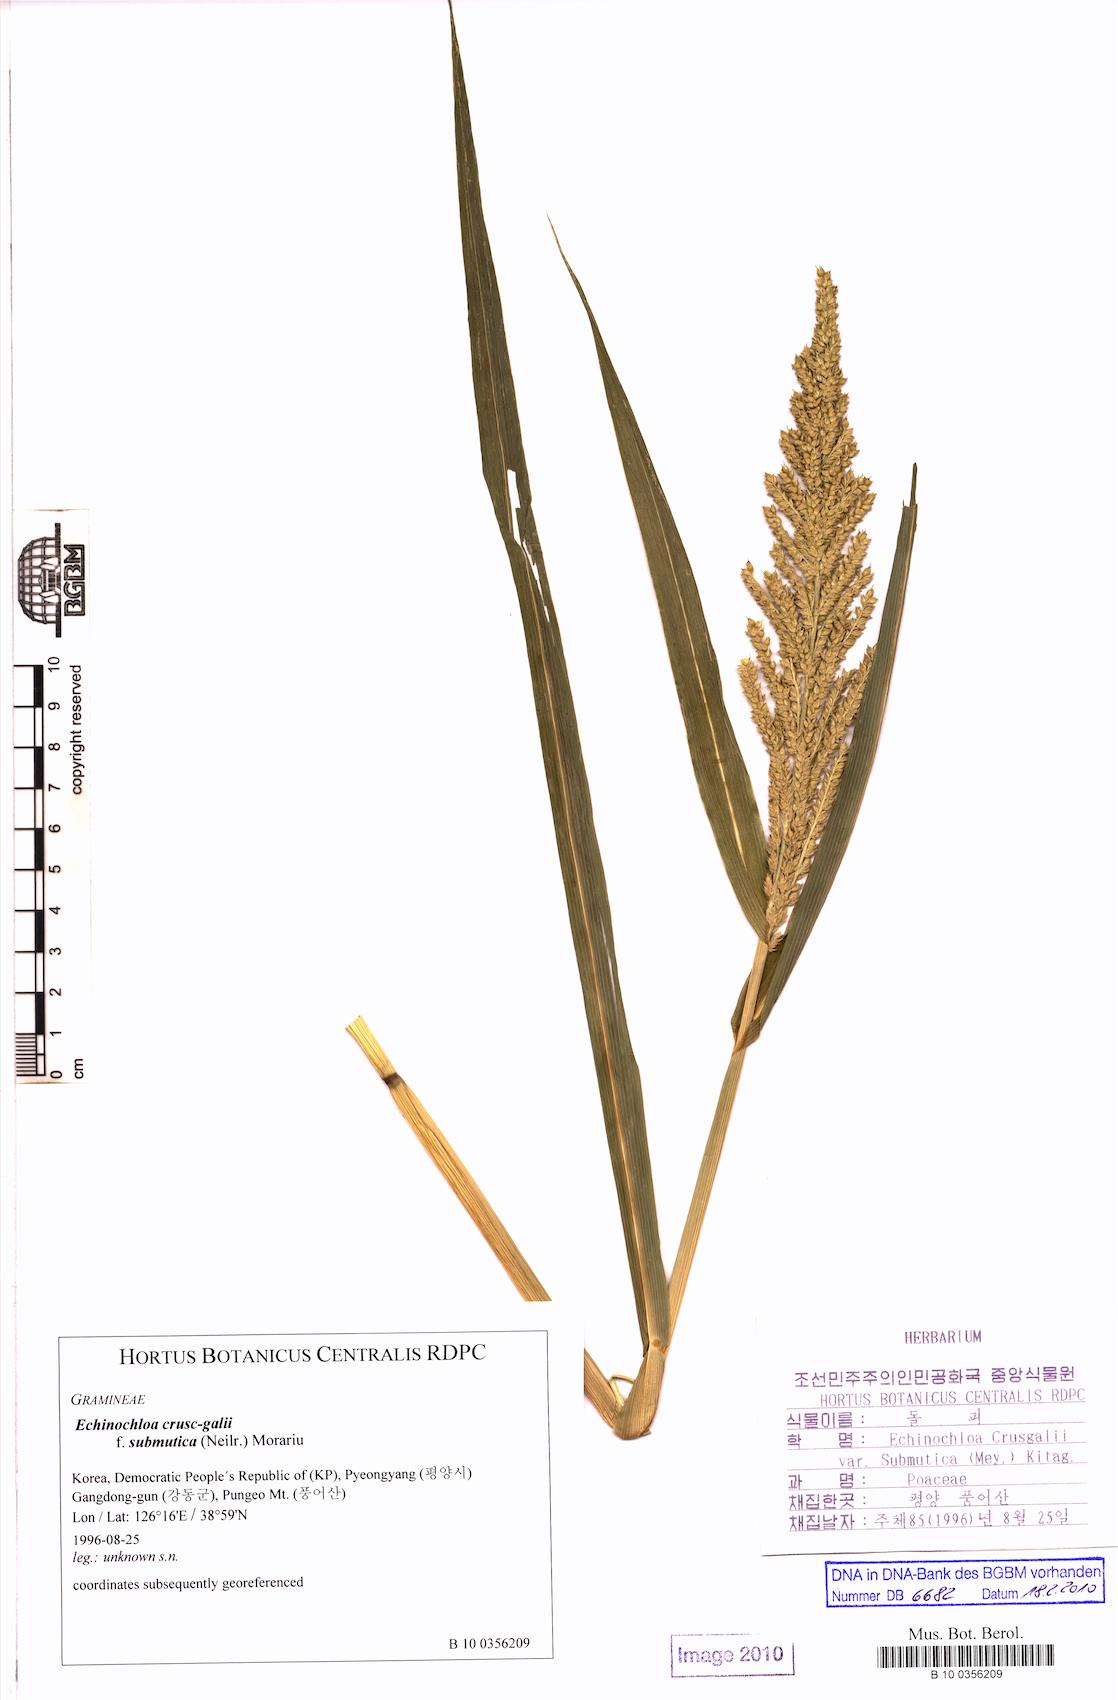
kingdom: Plantae
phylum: Tracheophyta
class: Liliopsida
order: Poales
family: Poaceae
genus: Echinochloa
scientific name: Echinochloa crus-galli
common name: Cockspur
